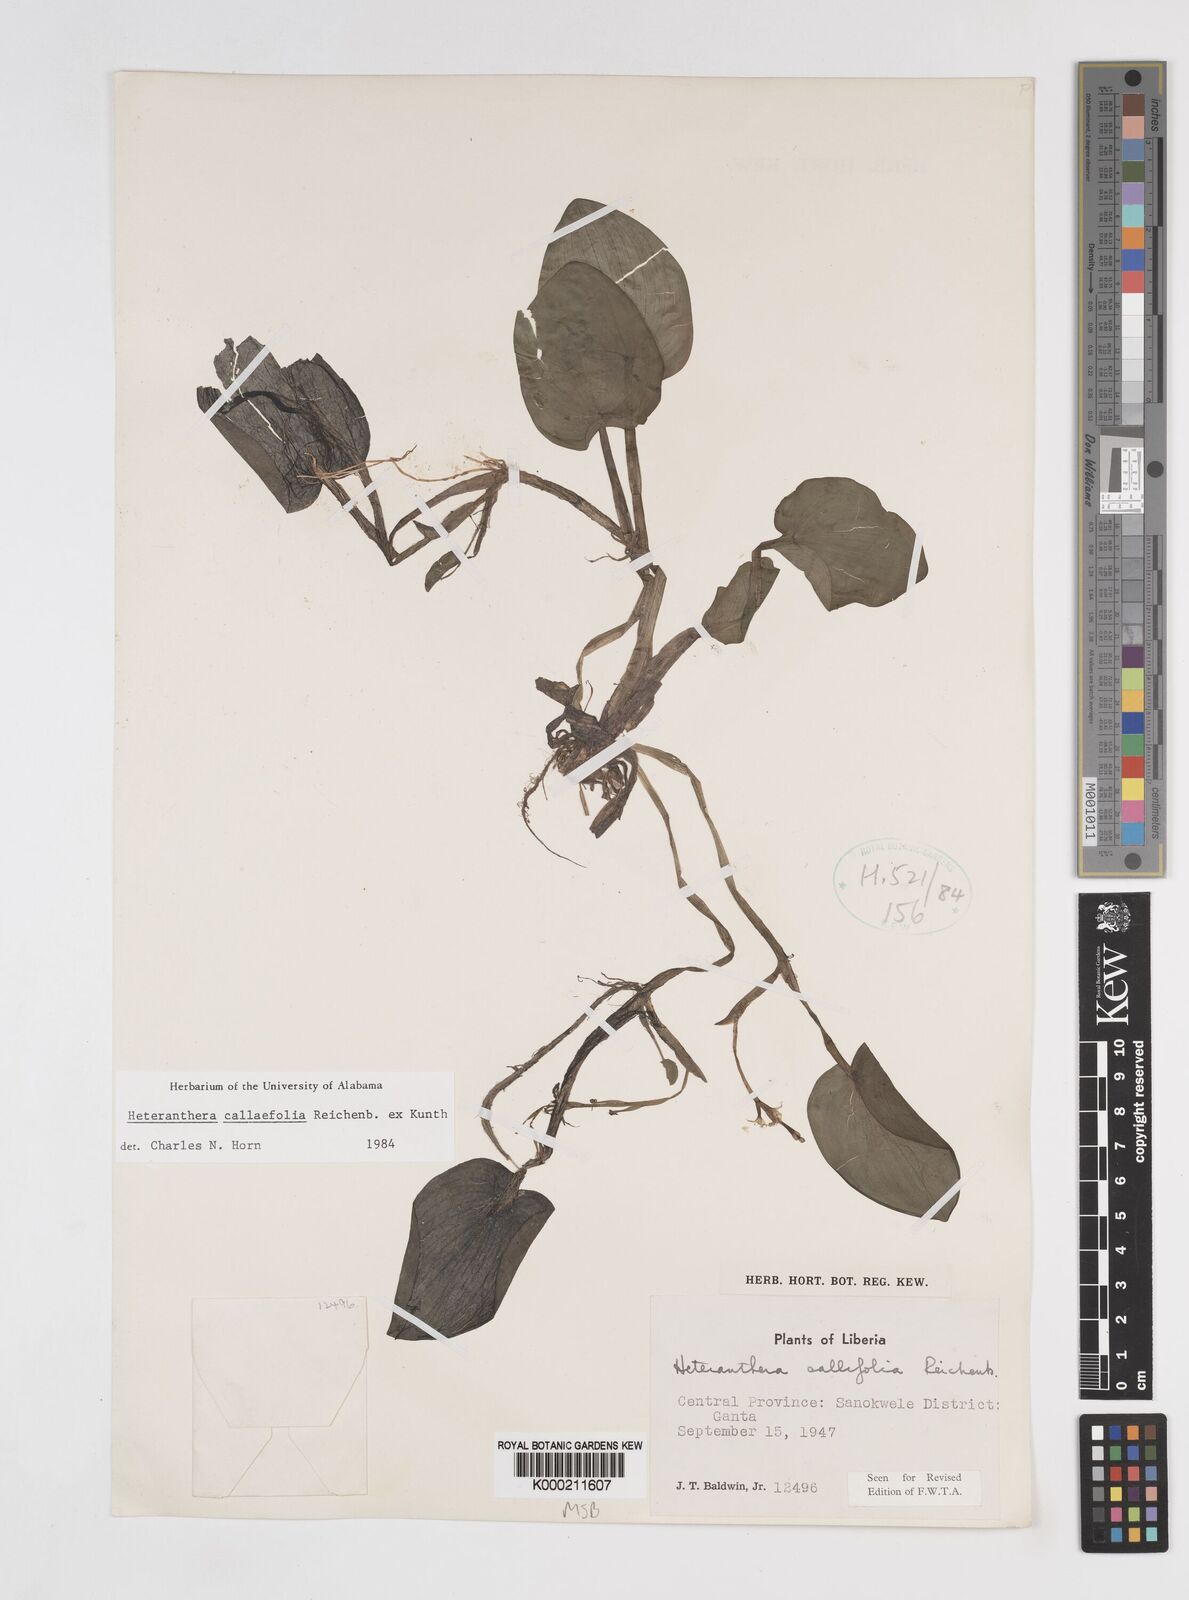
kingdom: Plantae
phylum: Tracheophyta
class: Liliopsida
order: Commelinales
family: Pontederiaceae
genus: Heteranthera
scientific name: Heteranthera callifolia
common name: Mud plantain
